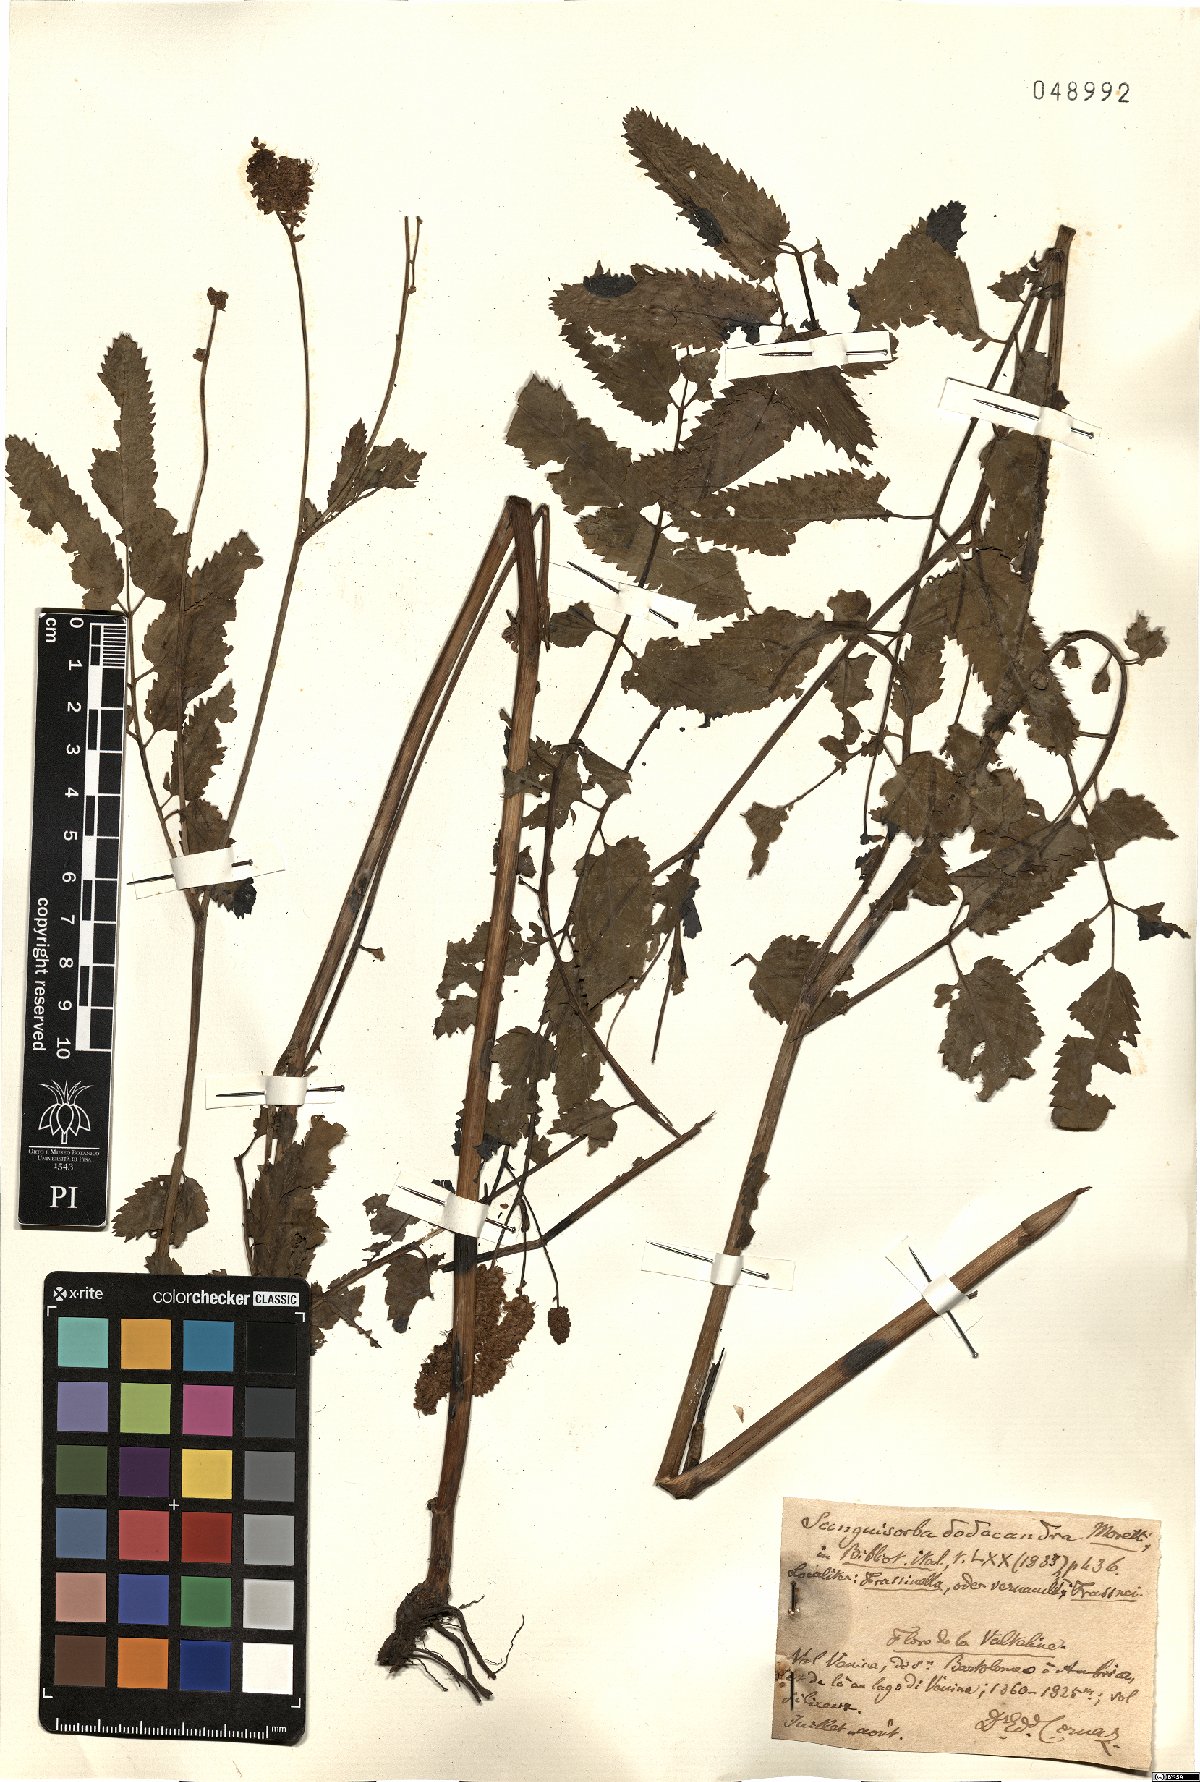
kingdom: Plantae
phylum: Tracheophyta
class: Magnoliopsida
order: Rosales
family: Rosaceae
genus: Poterium
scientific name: Poterium dodecandrum
